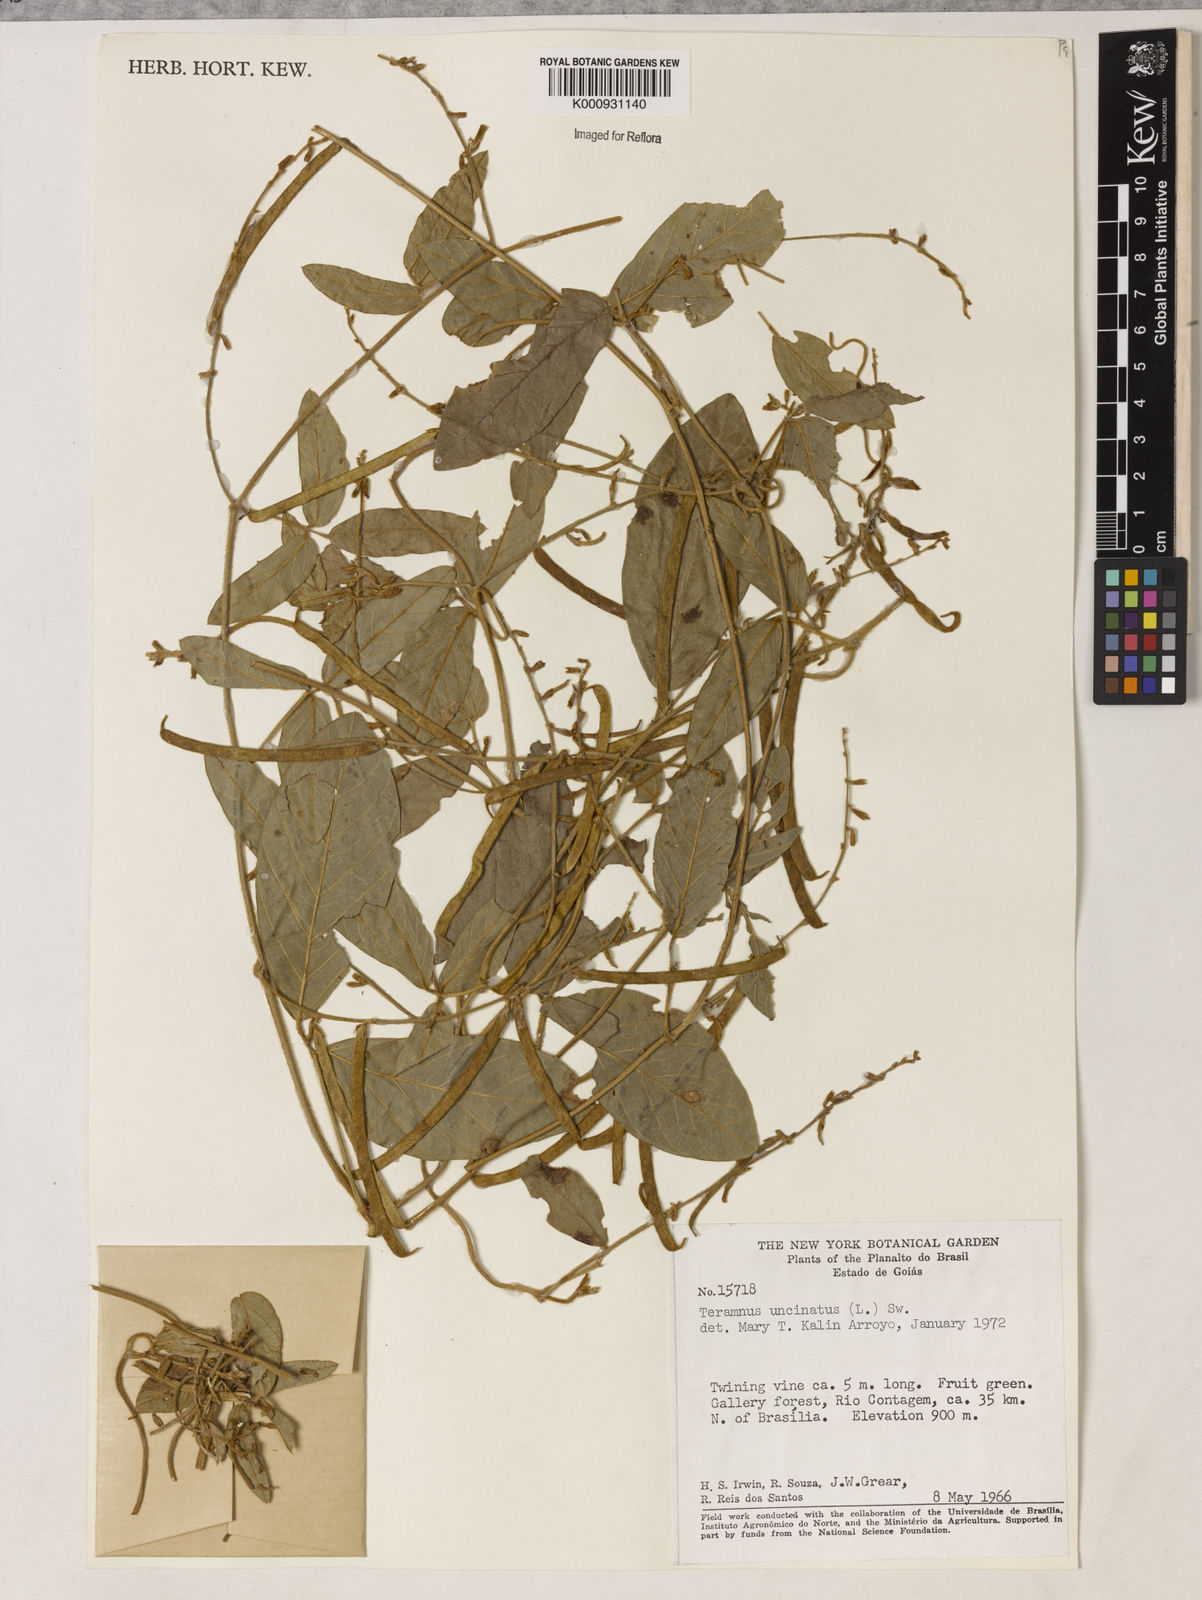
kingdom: Plantae
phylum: Tracheophyta
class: Magnoliopsida
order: Fabales
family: Fabaceae
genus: Teramnus
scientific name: Teramnus uncinatus
